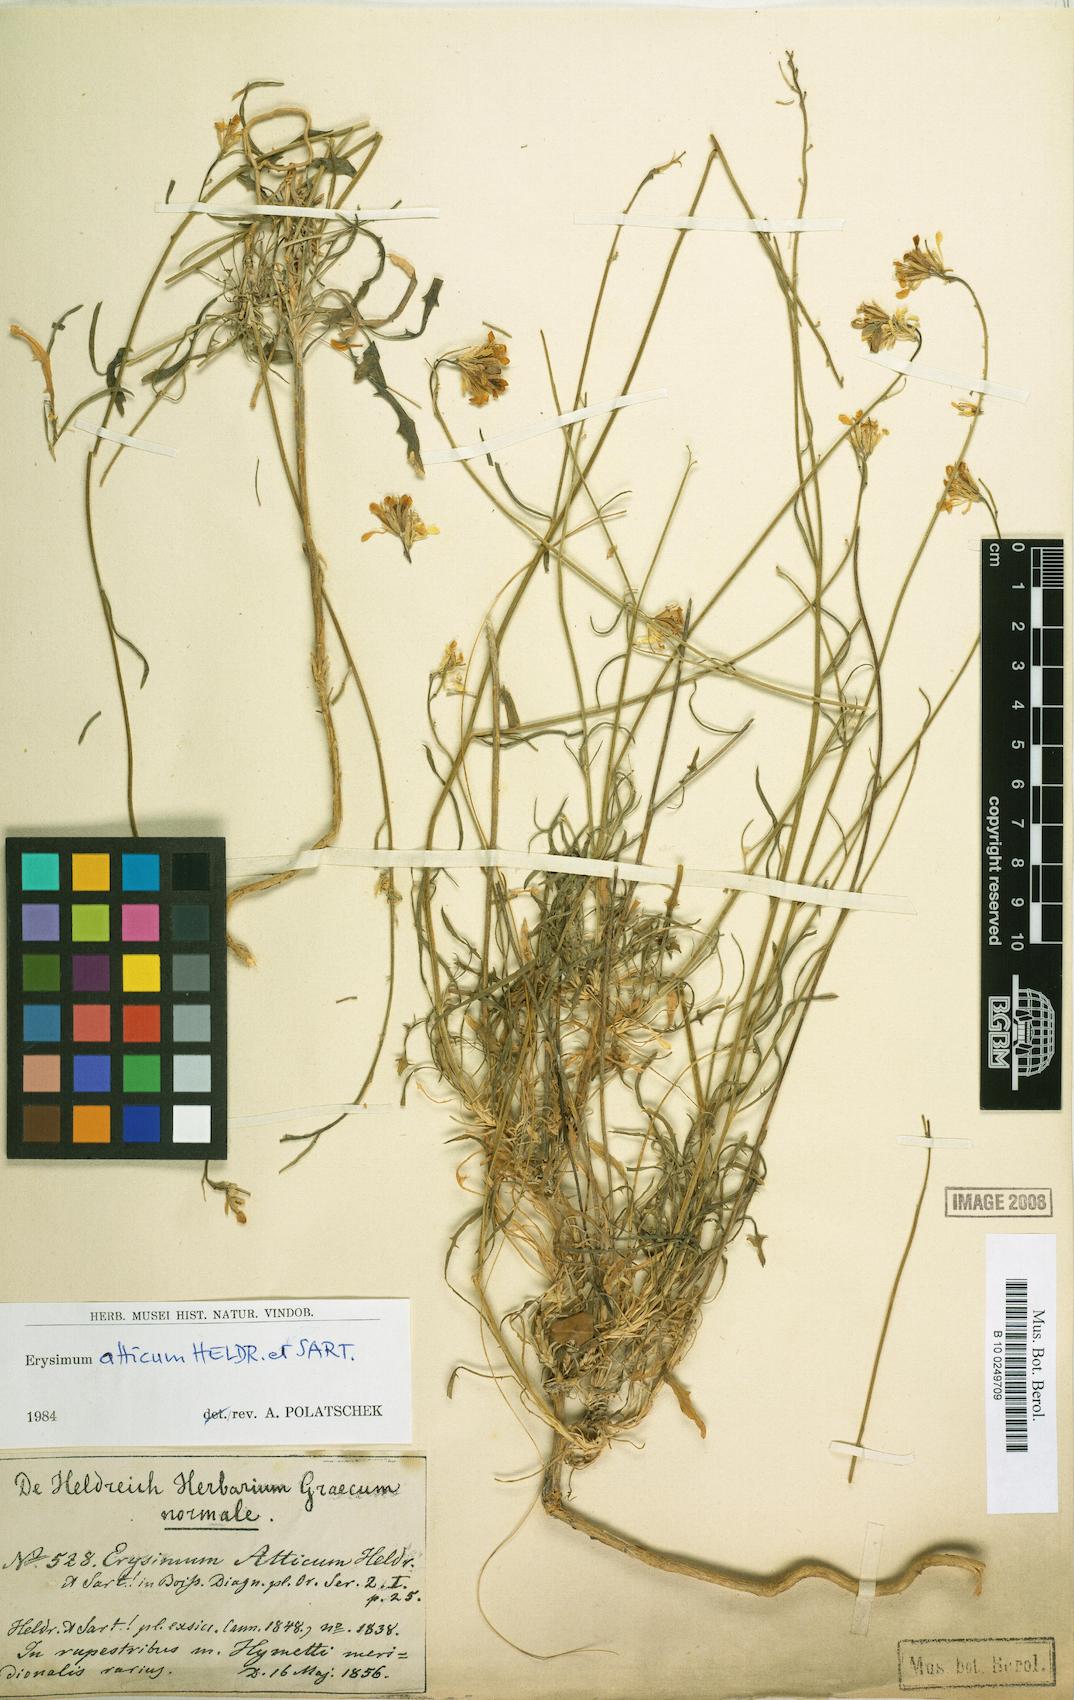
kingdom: Plantae
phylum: Tracheophyta
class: Magnoliopsida
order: Brassicales
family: Brassicaceae
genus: Erysimum
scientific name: Erysimum atticum
